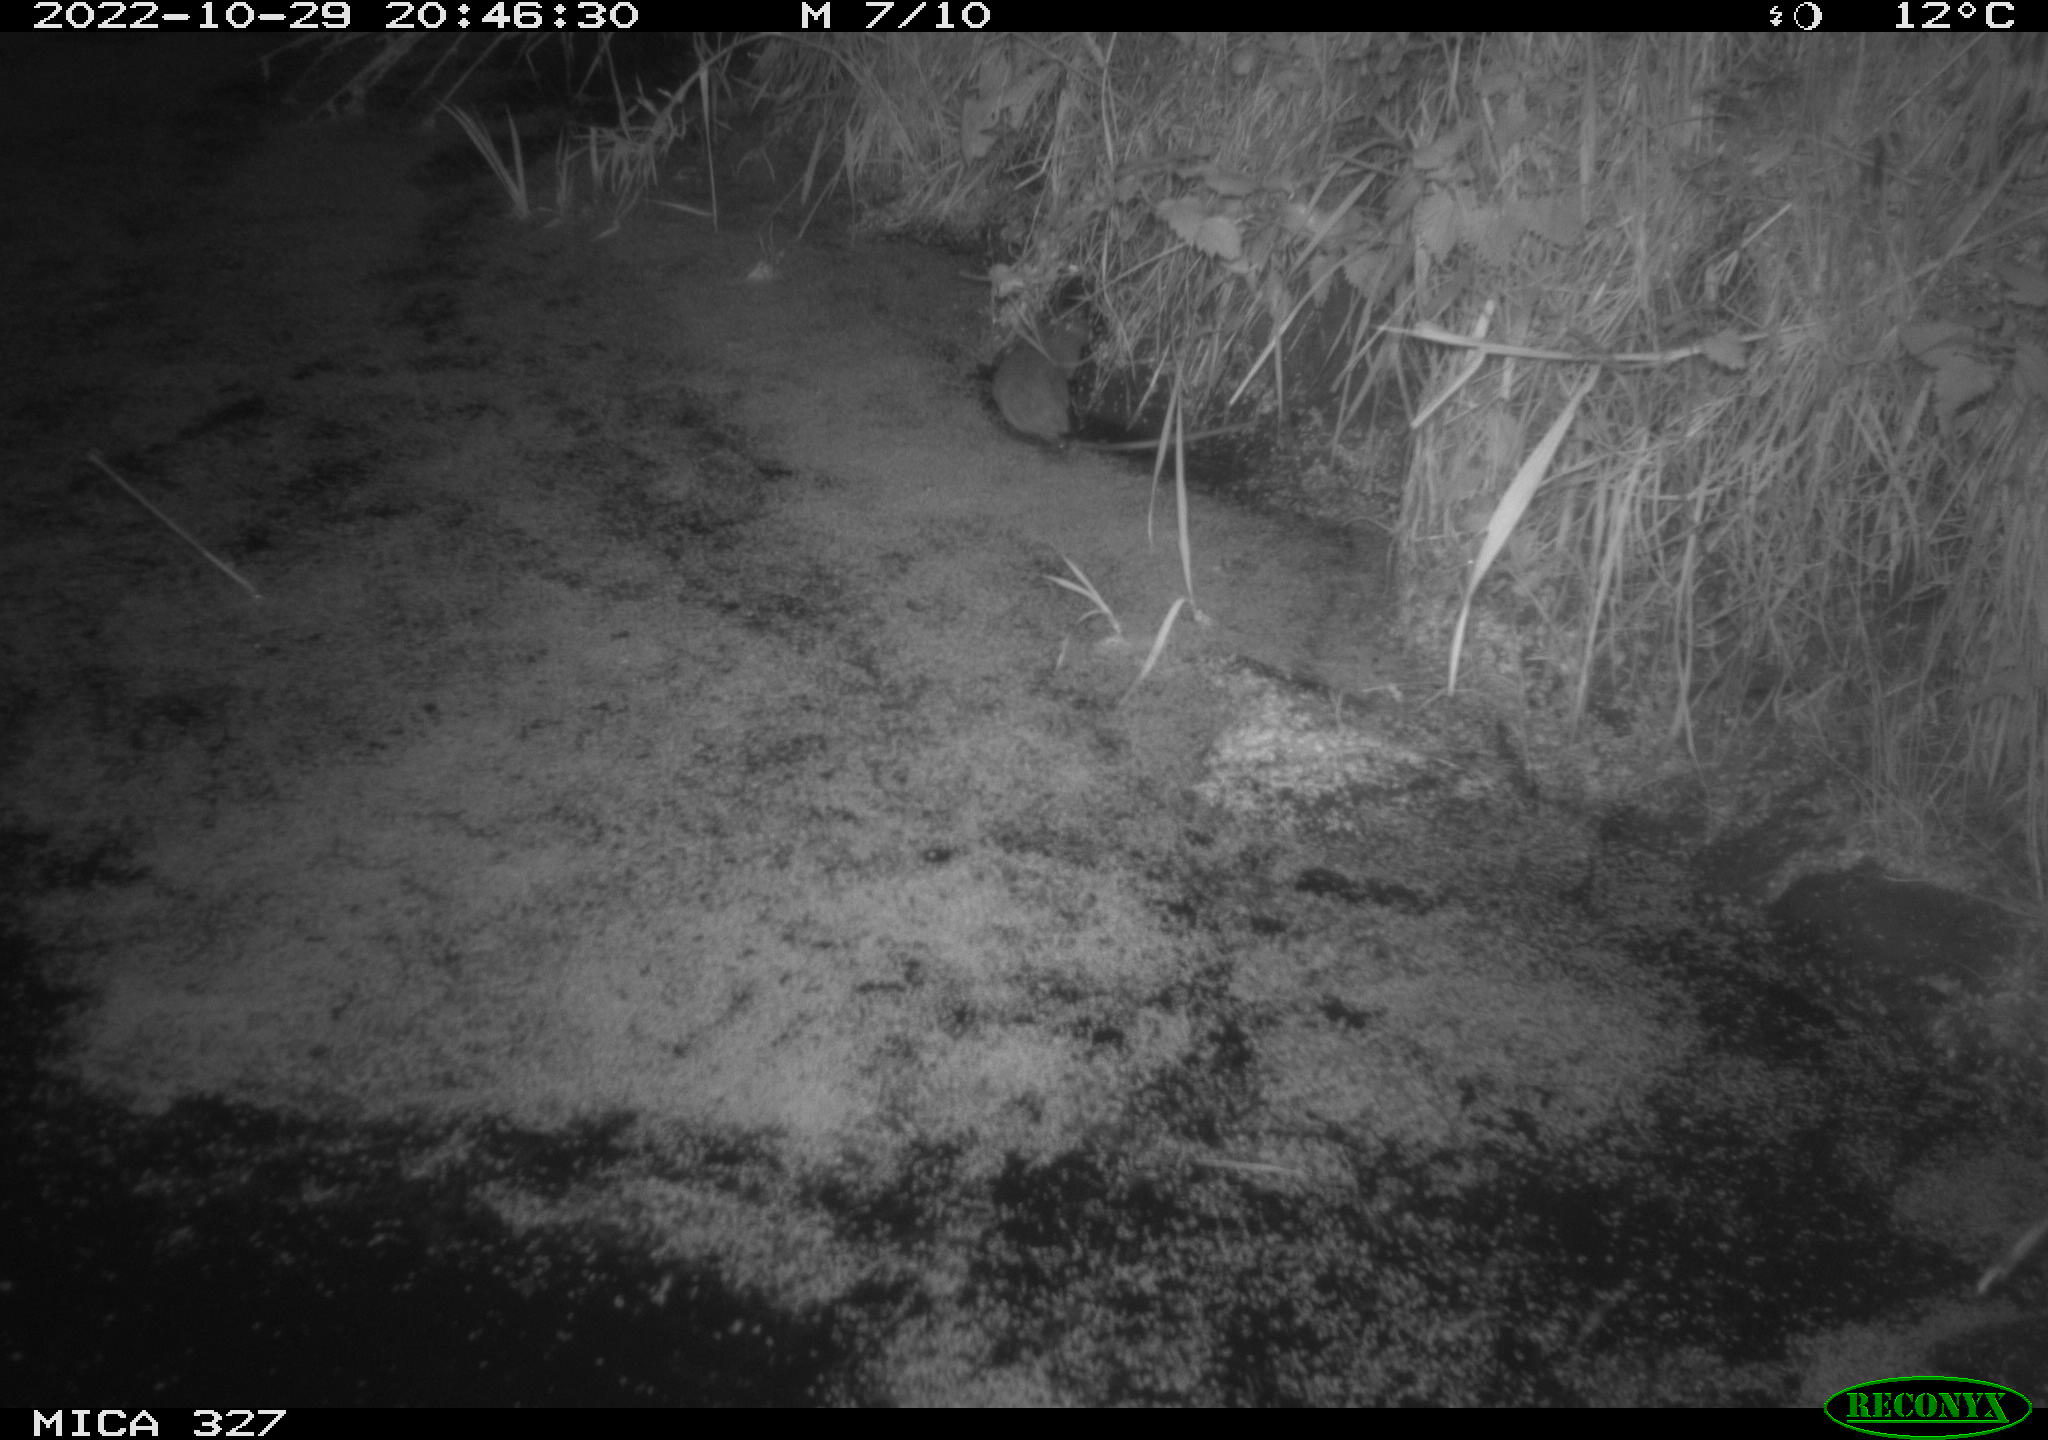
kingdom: Animalia
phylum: Chordata
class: Mammalia
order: Rodentia
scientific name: Rodentia
